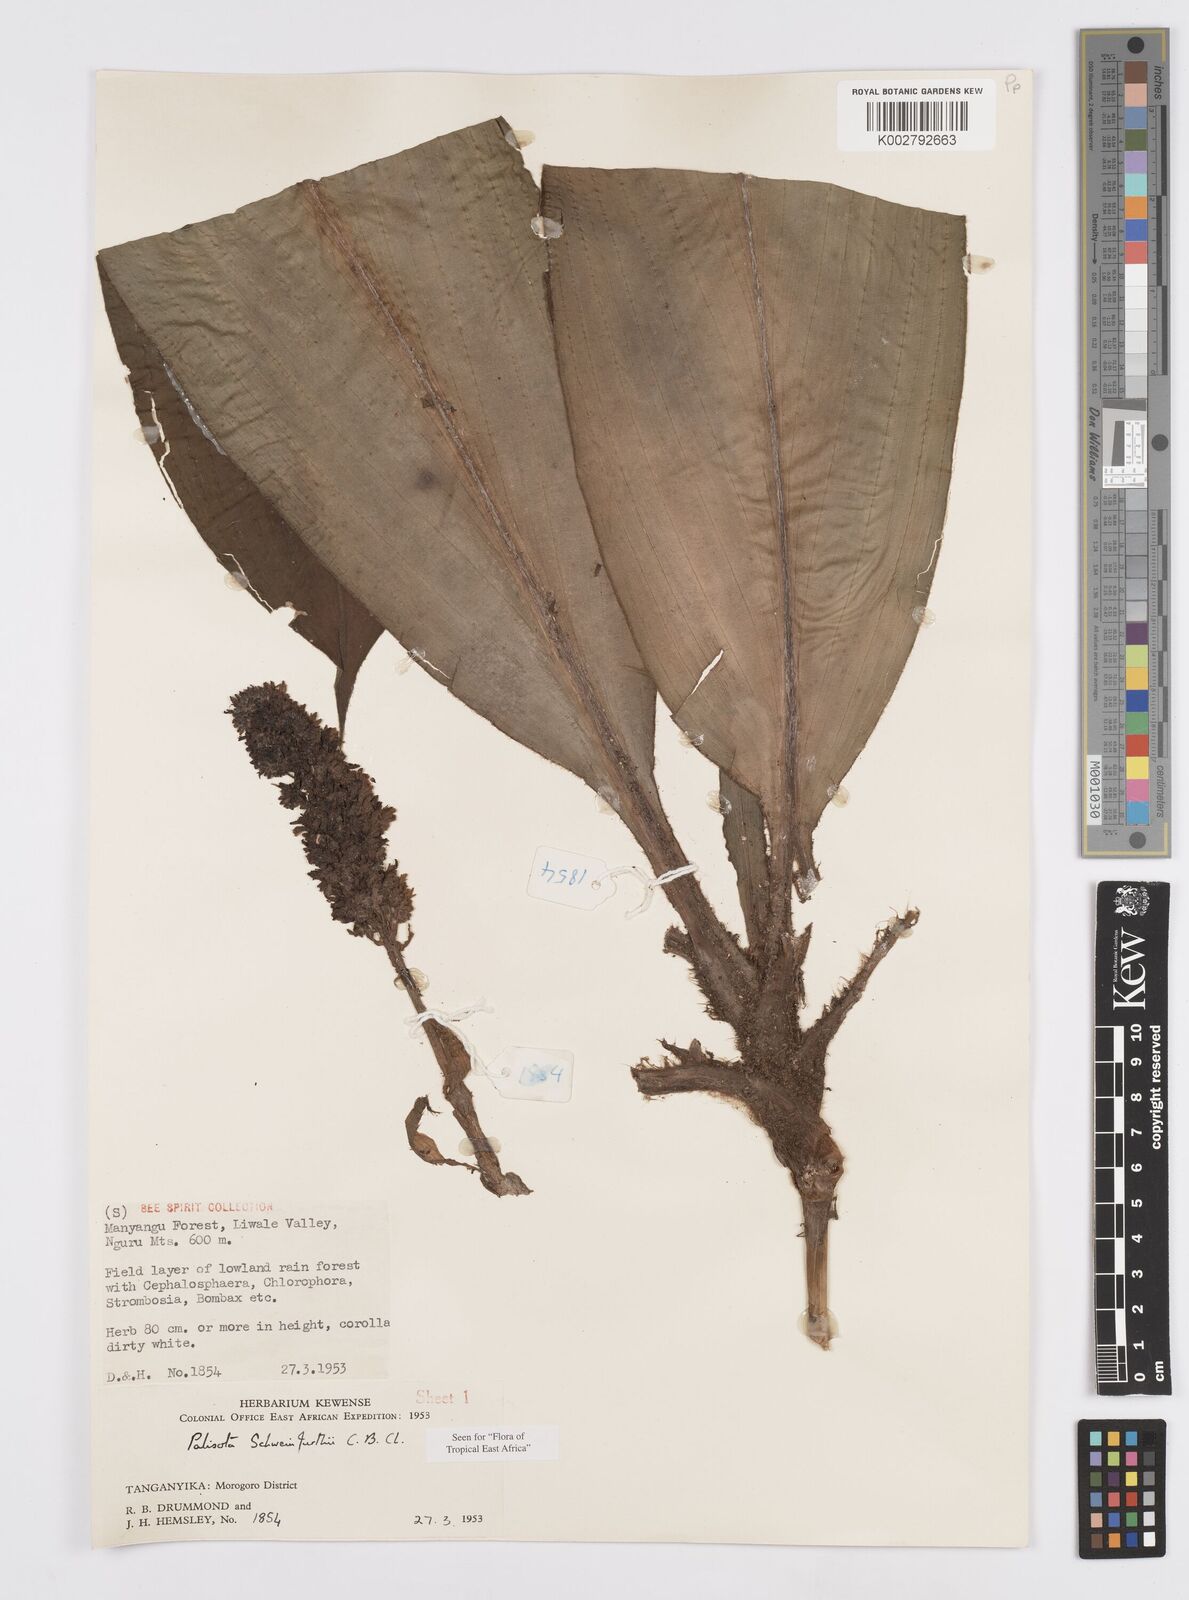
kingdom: Plantae
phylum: Tracheophyta
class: Liliopsida
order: Commelinales
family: Commelinaceae
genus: Palisota
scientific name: Palisota schweinfurthii
